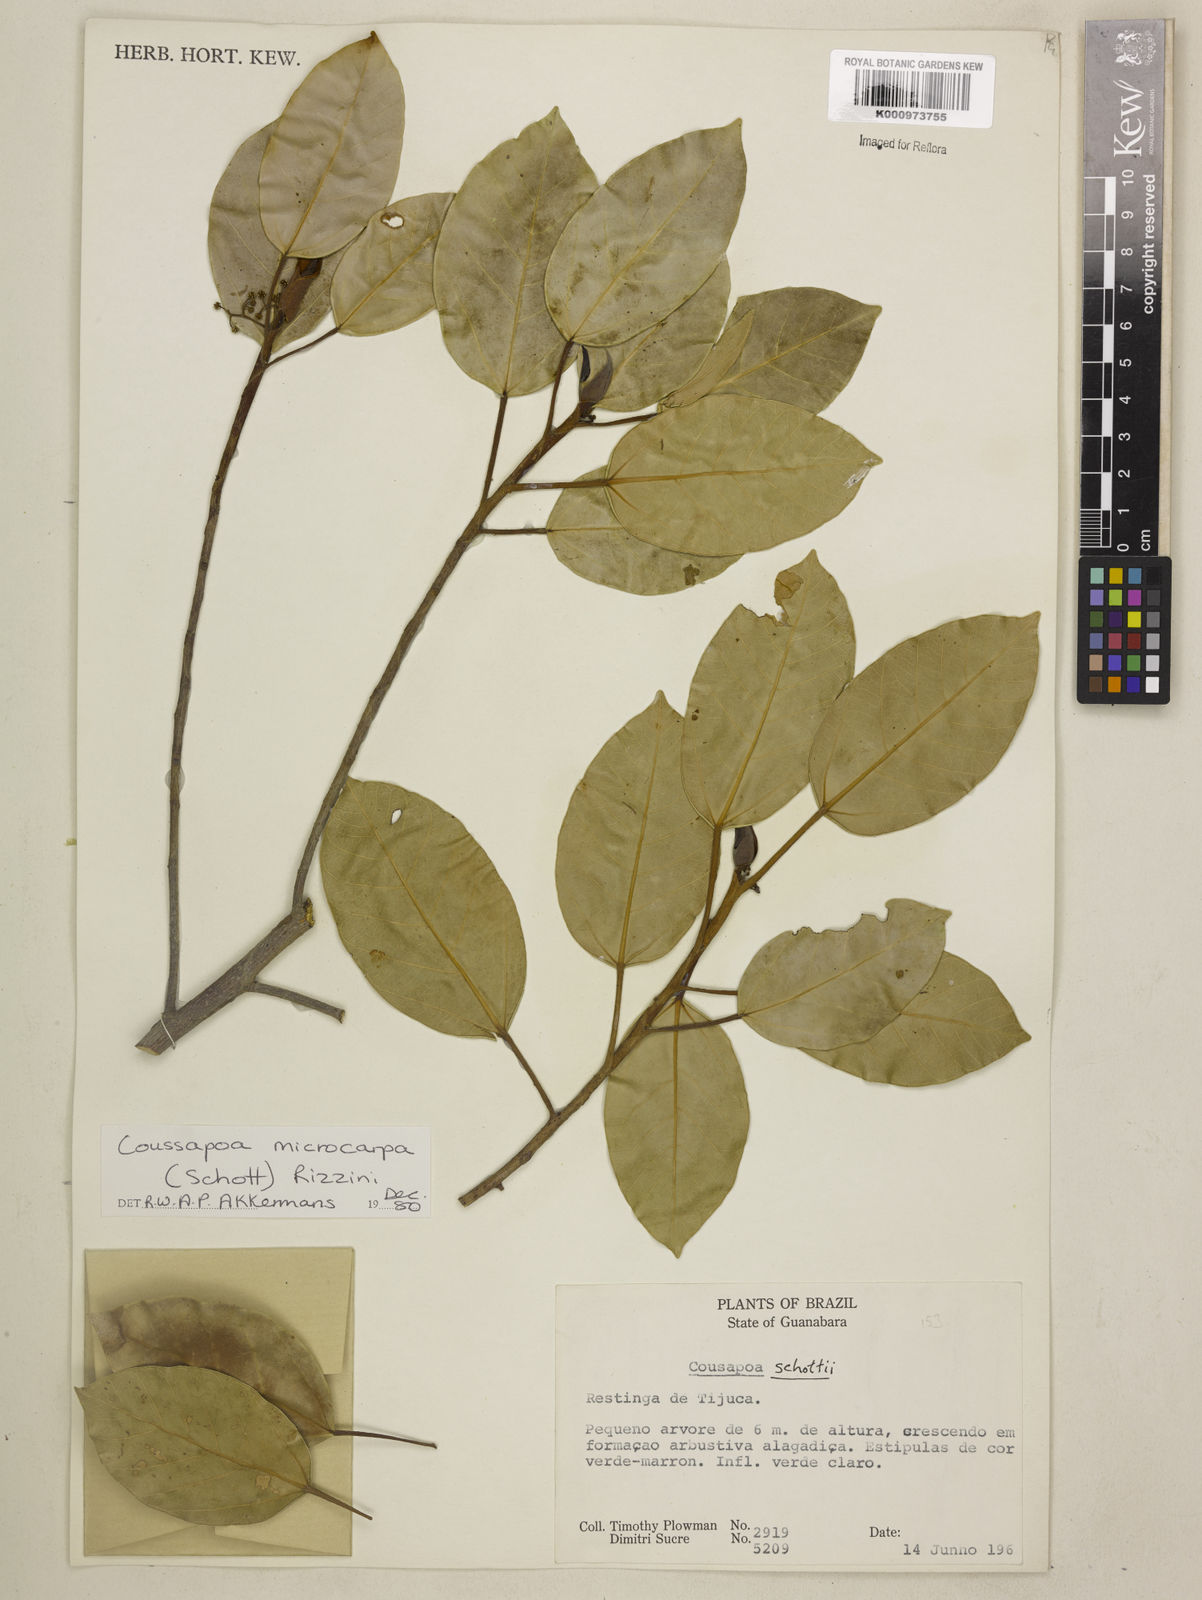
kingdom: Plantae
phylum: Tracheophyta
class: Magnoliopsida
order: Rosales
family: Urticaceae
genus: Coussapoa
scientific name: Coussapoa microcarpa
